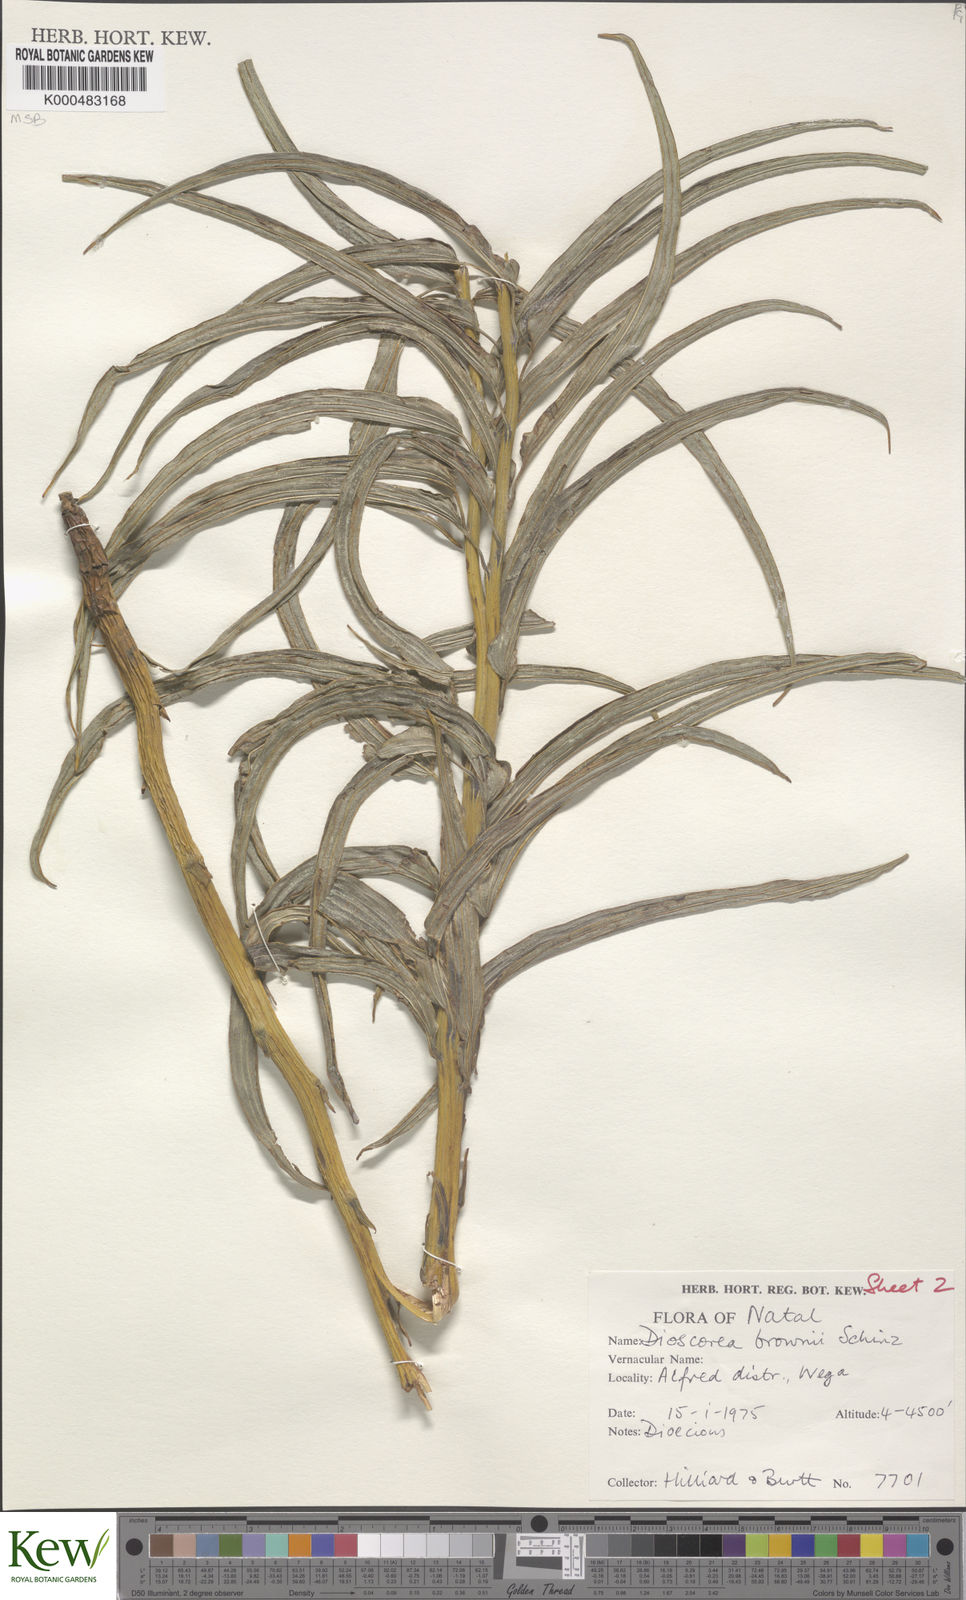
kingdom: Plantae
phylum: Tracheophyta
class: Liliopsida
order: Dioscoreales
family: Dioscoreaceae
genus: Dioscorea
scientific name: Dioscorea brownii
